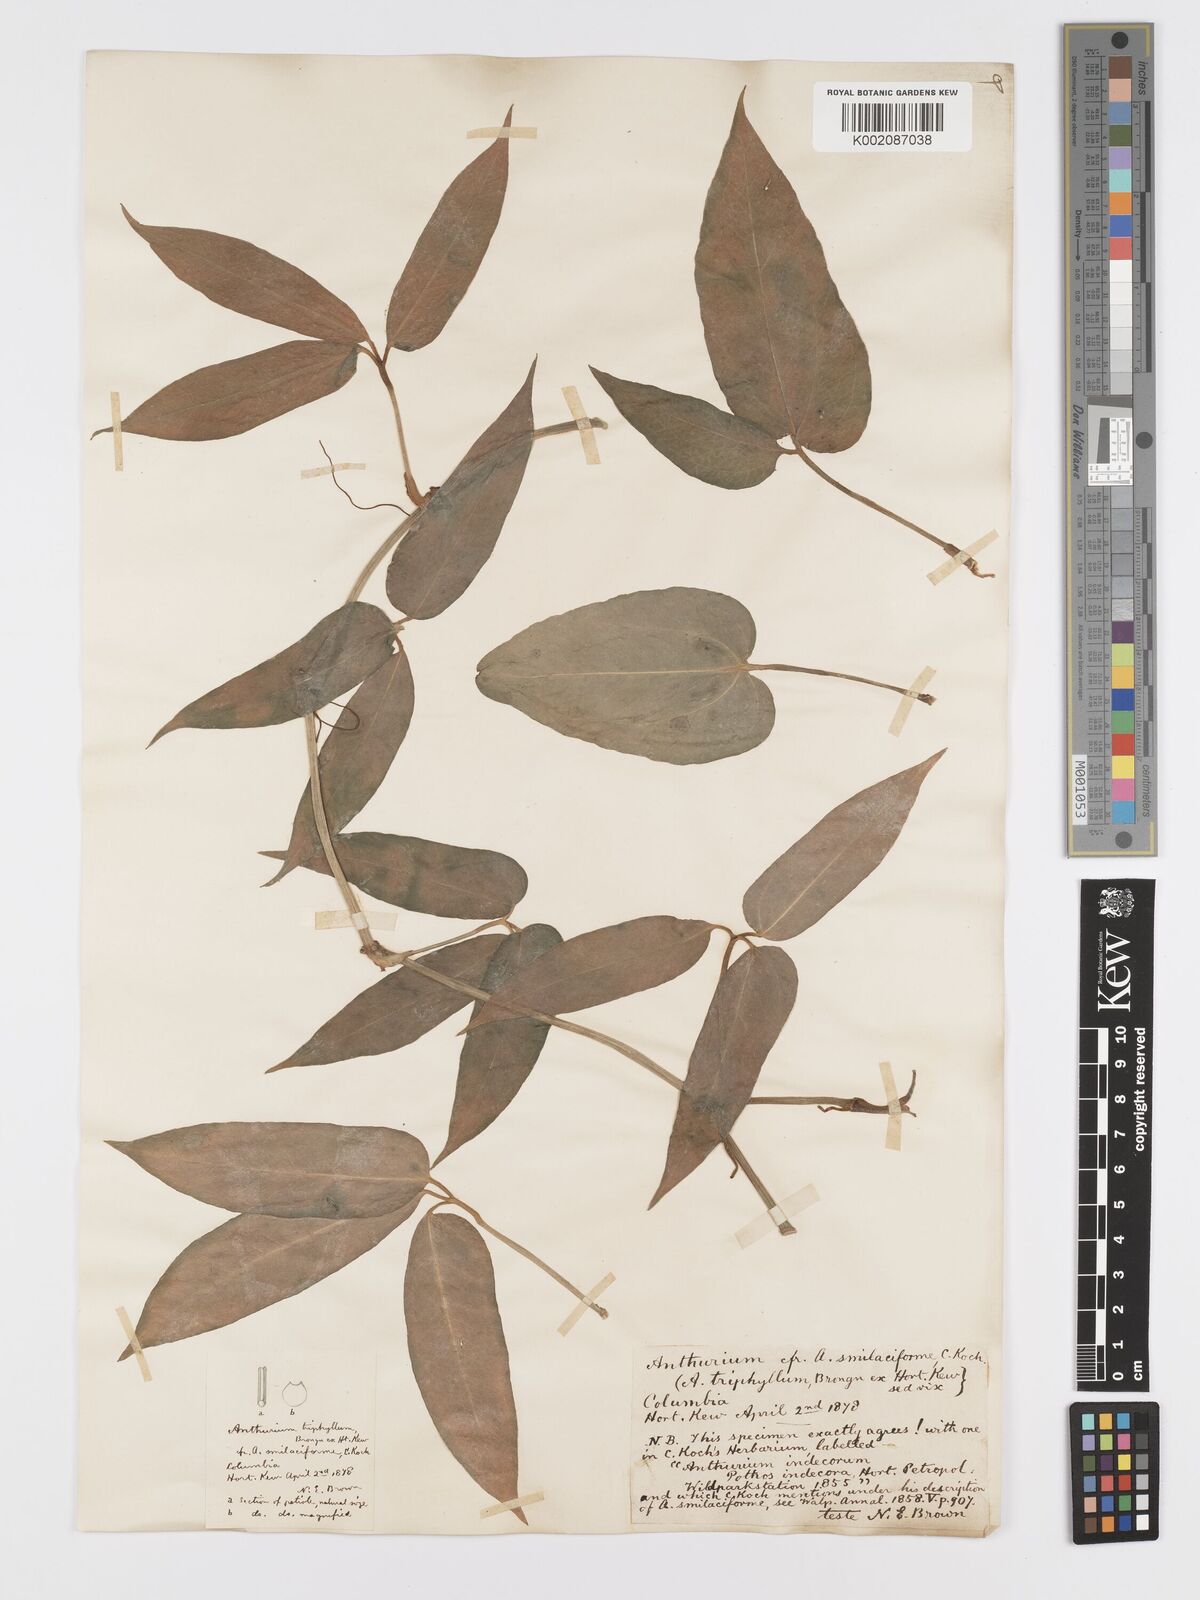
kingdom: Plantae
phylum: Tracheophyta
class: Liliopsida
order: Alismatales
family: Araceae
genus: Anthurium
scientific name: Anthurium pentaphyllum
